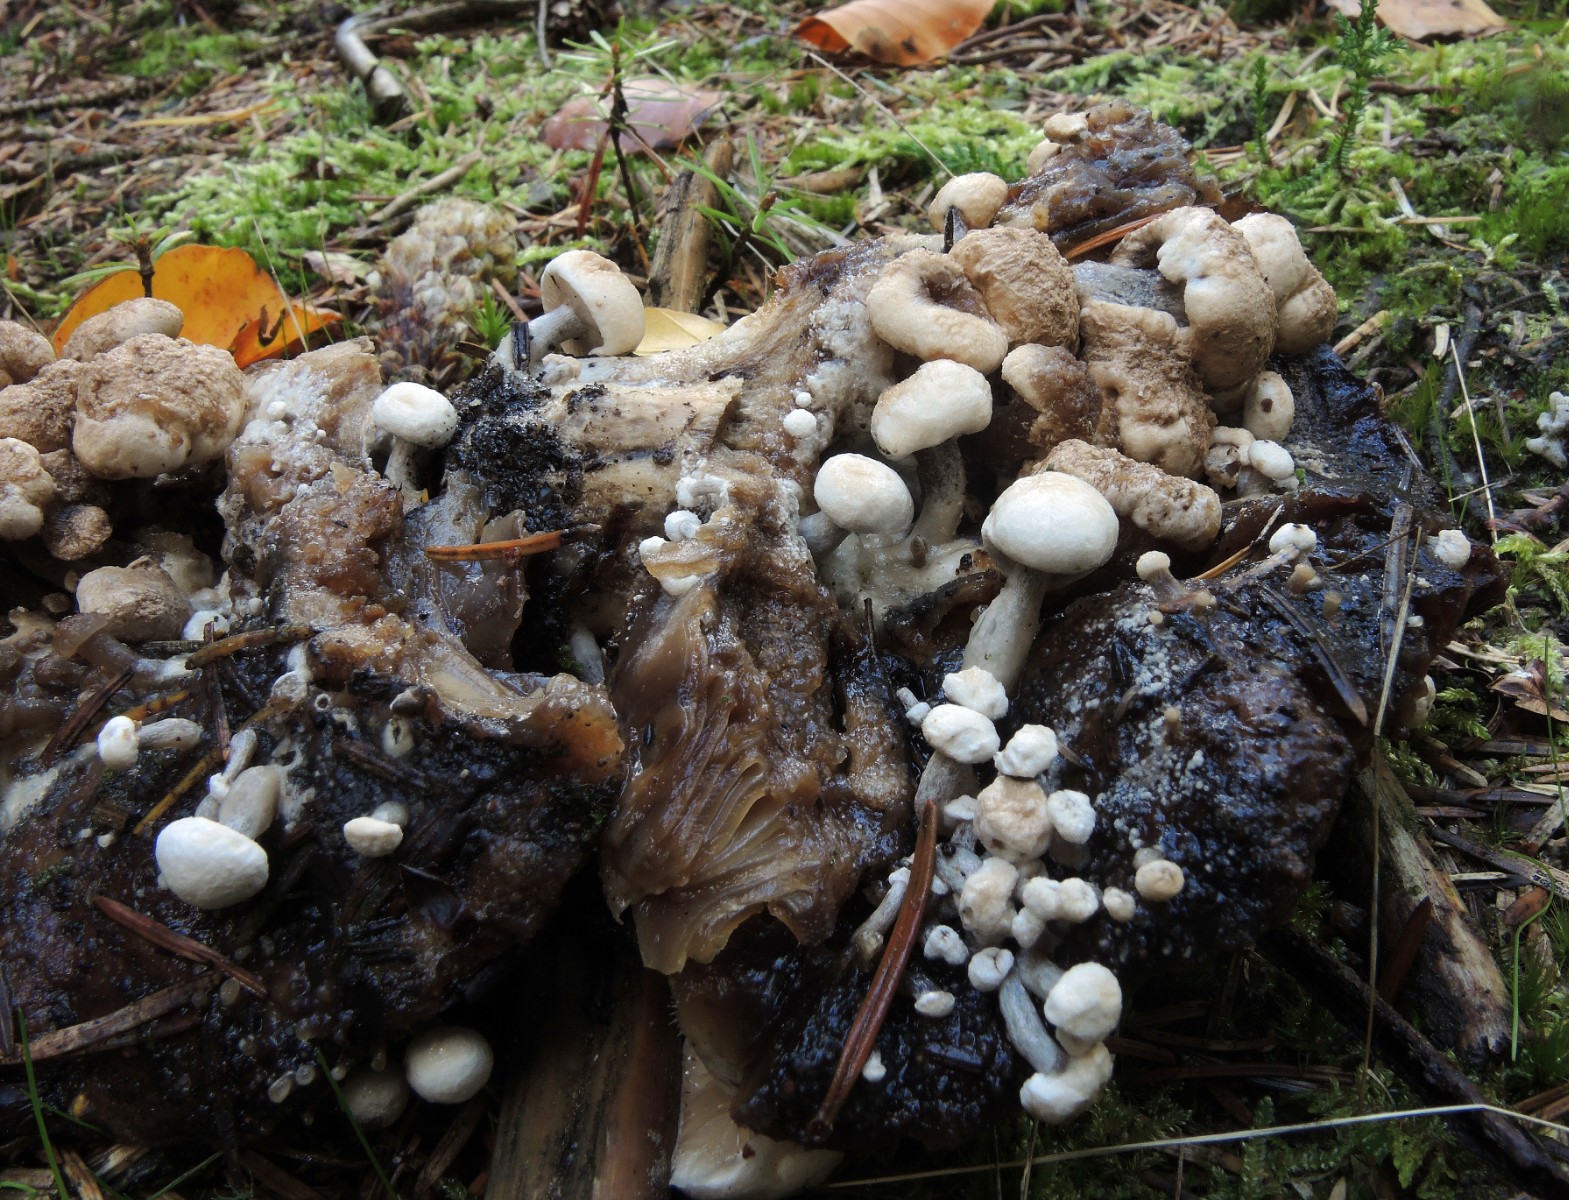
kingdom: Fungi
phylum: Basidiomycota
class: Agaricomycetes
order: Agaricales
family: Lyophyllaceae
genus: Asterophora
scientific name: Asterophora lycoperdoides
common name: brunpudret snyltehat
